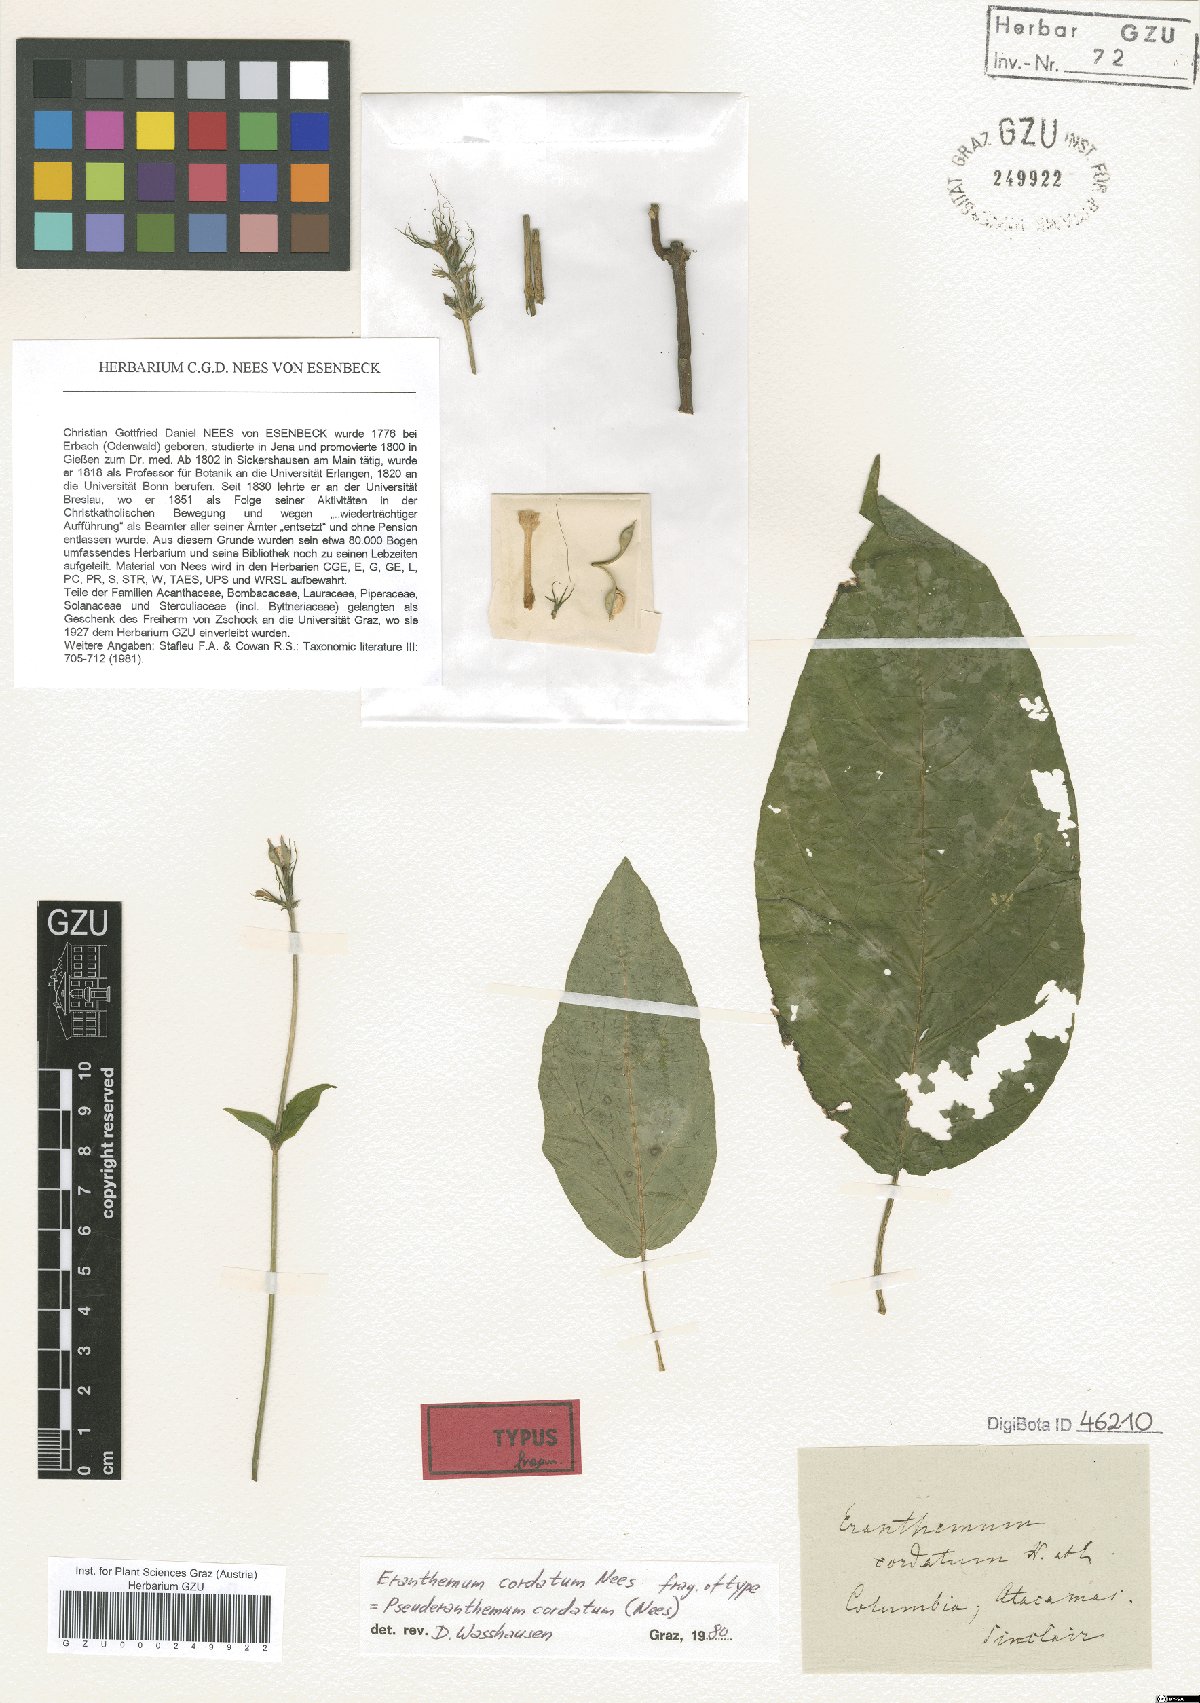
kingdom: Plantae
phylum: Tracheophyta
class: Magnoliopsida
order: Lamiales
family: Acanthaceae
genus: Pachystachys
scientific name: Pachystachys cordata
